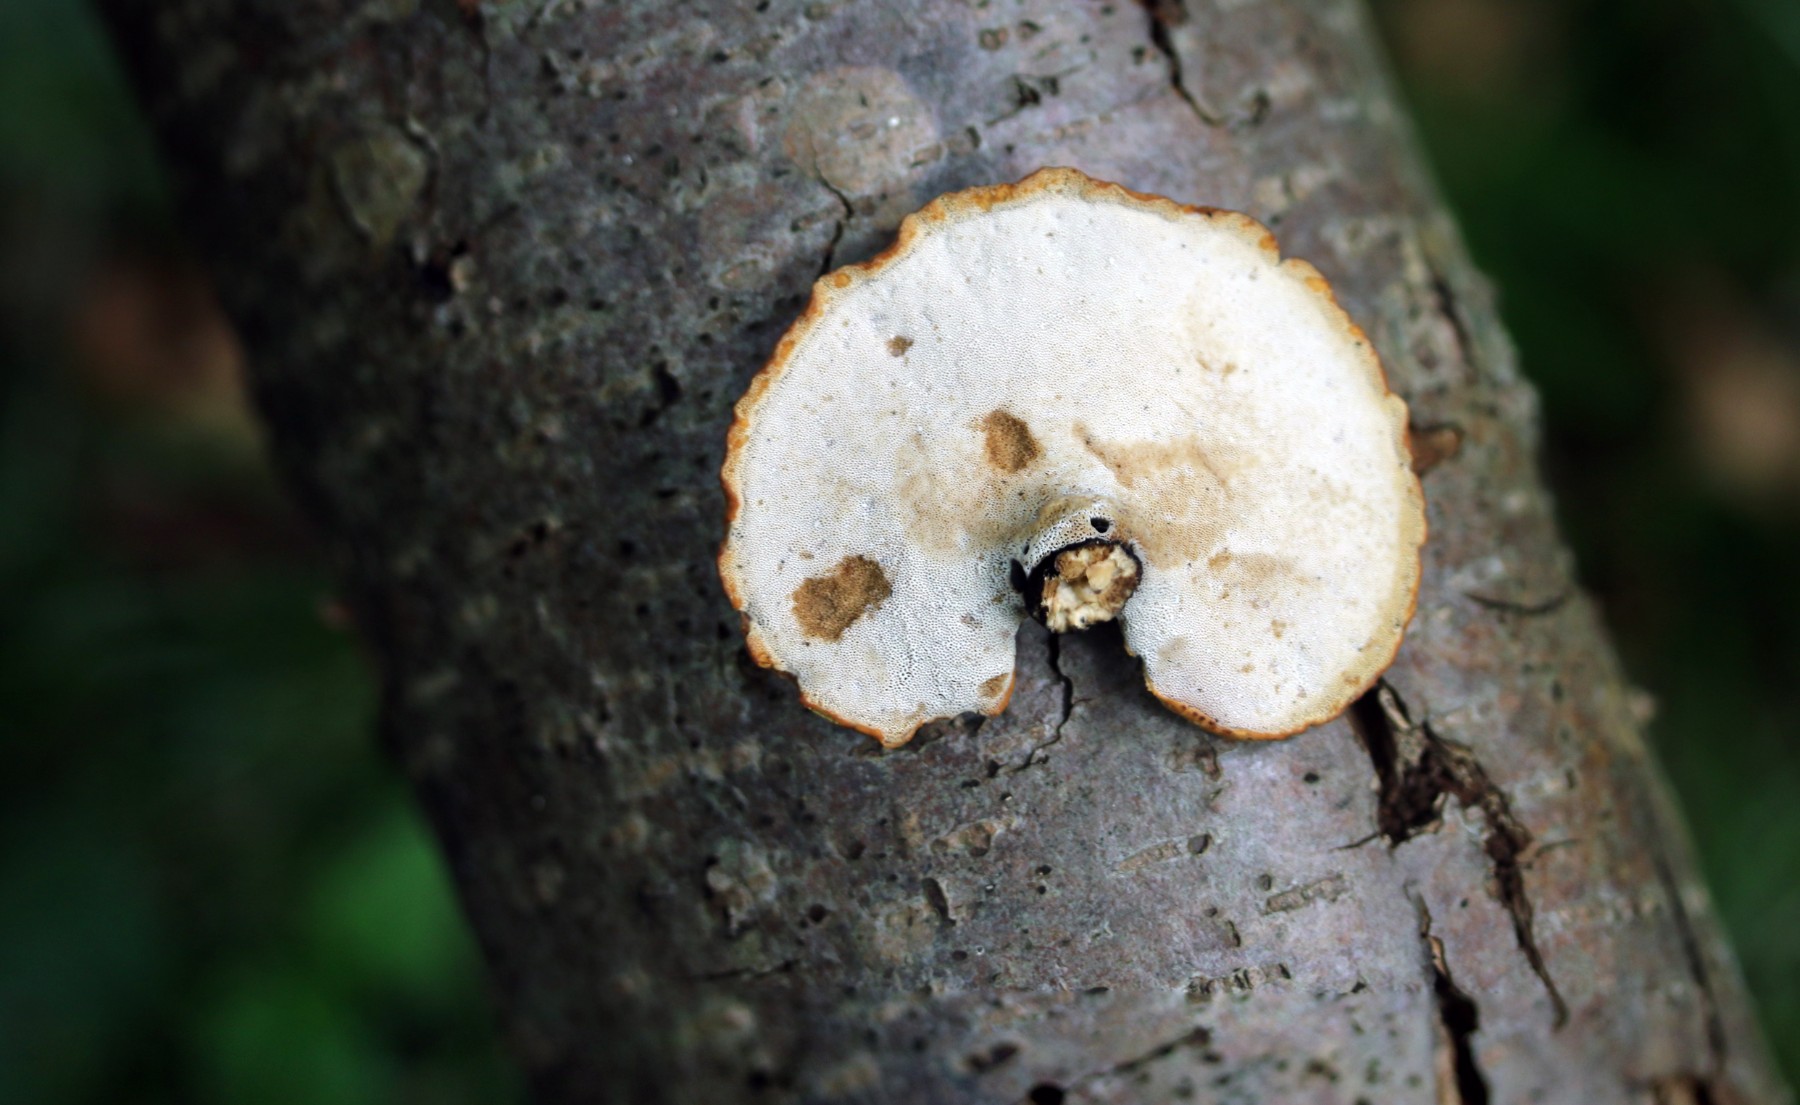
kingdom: Fungi
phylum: Basidiomycota
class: Agaricomycetes
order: Polyporales
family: Polyporaceae
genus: Cerioporus
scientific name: Cerioporus varius
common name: foranderlig stilkporesvamp
